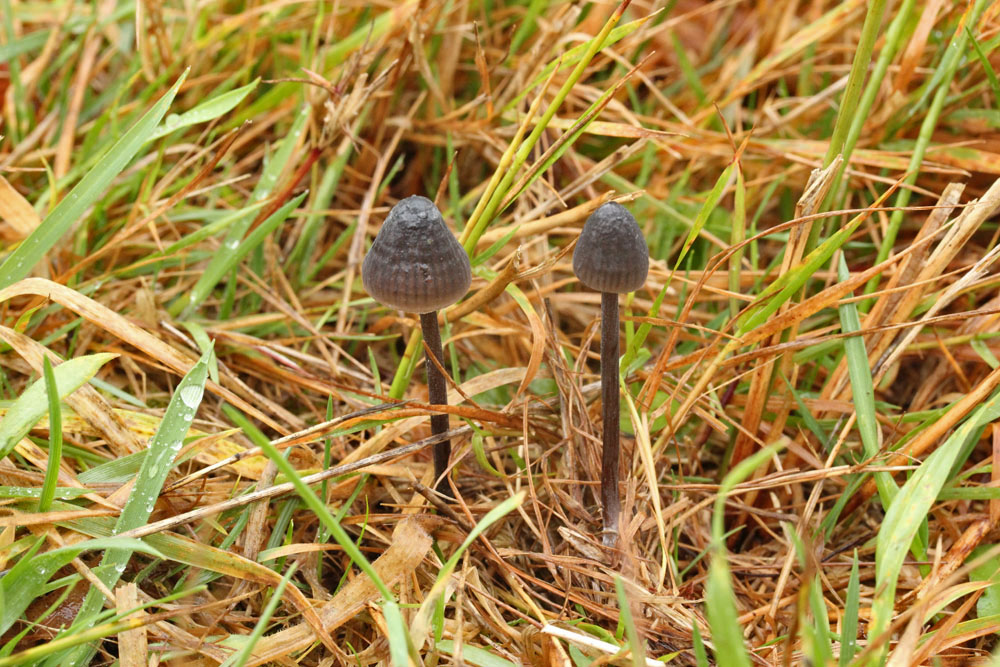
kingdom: Fungi
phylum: Basidiomycota
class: Agaricomycetes
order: Agaricales
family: Mycenaceae
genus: Mycena
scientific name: Mycena galopus
